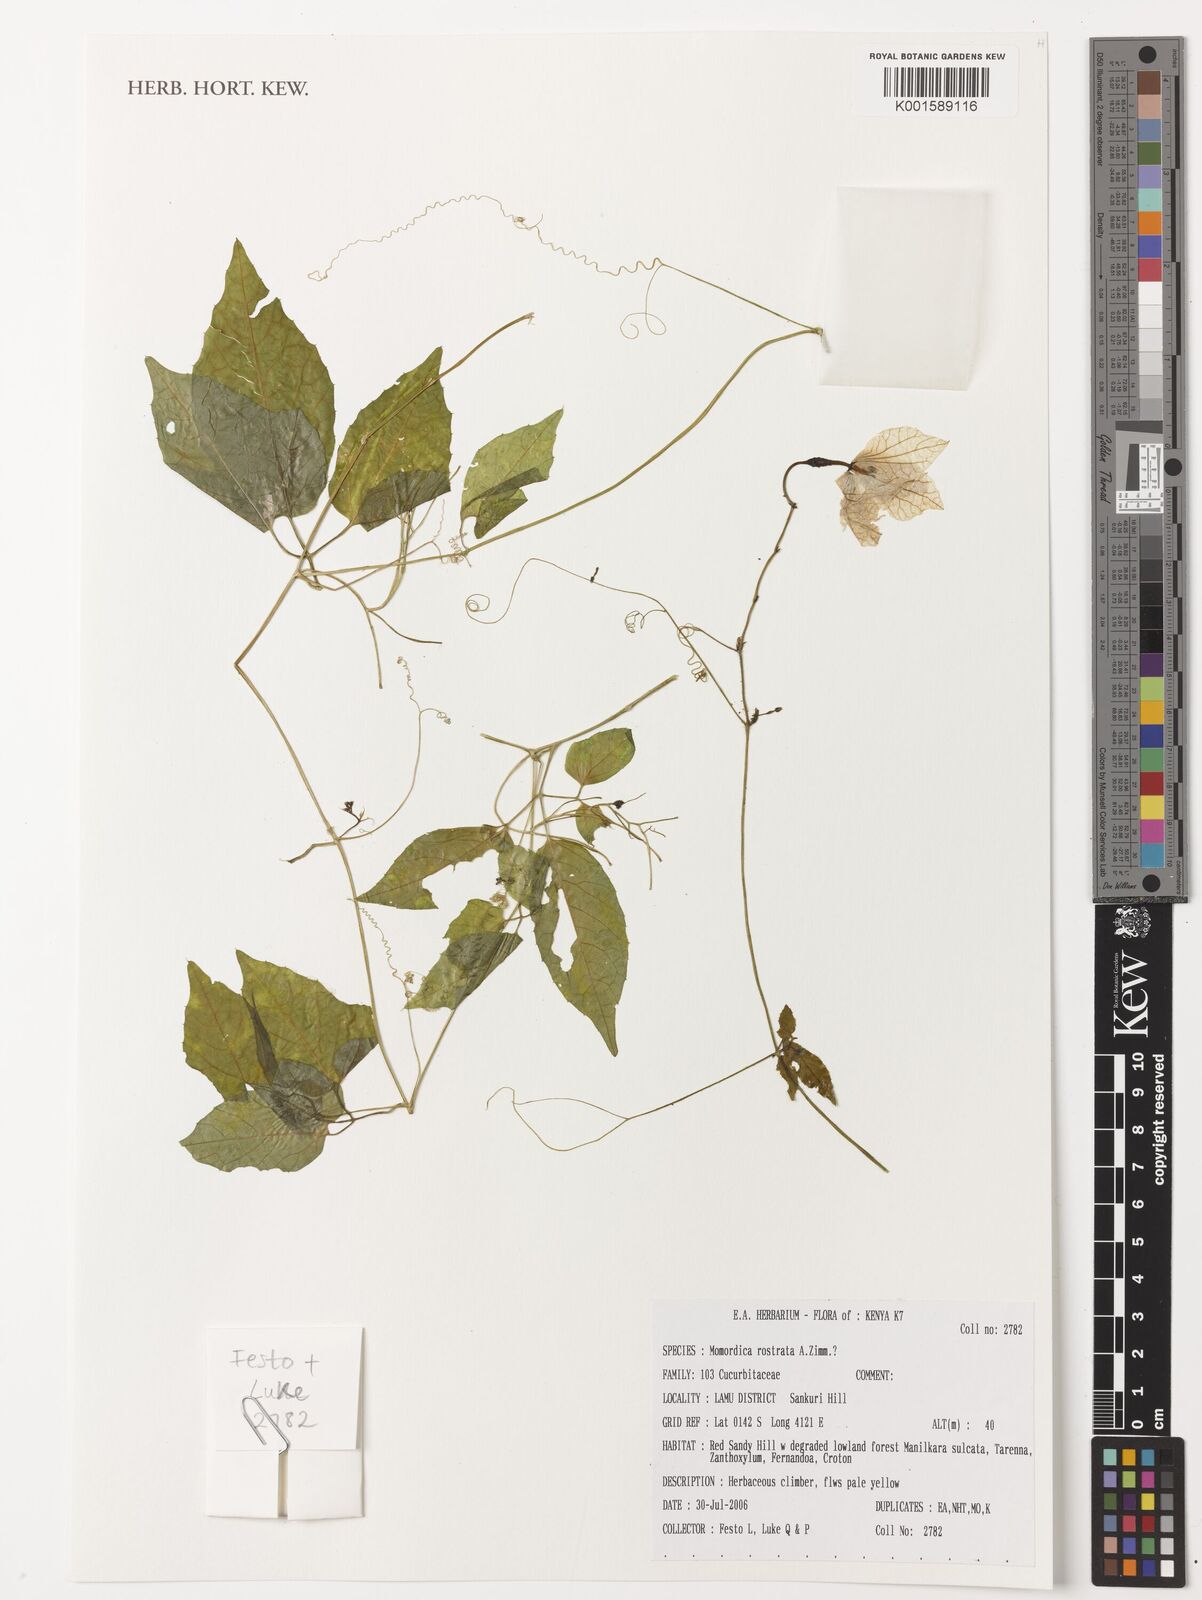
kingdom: Plantae
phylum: Tracheophyta
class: Magnoliopsida
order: Cucurbitales
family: Cucurbitaceae
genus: Momordica
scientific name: Momordica rostrata
